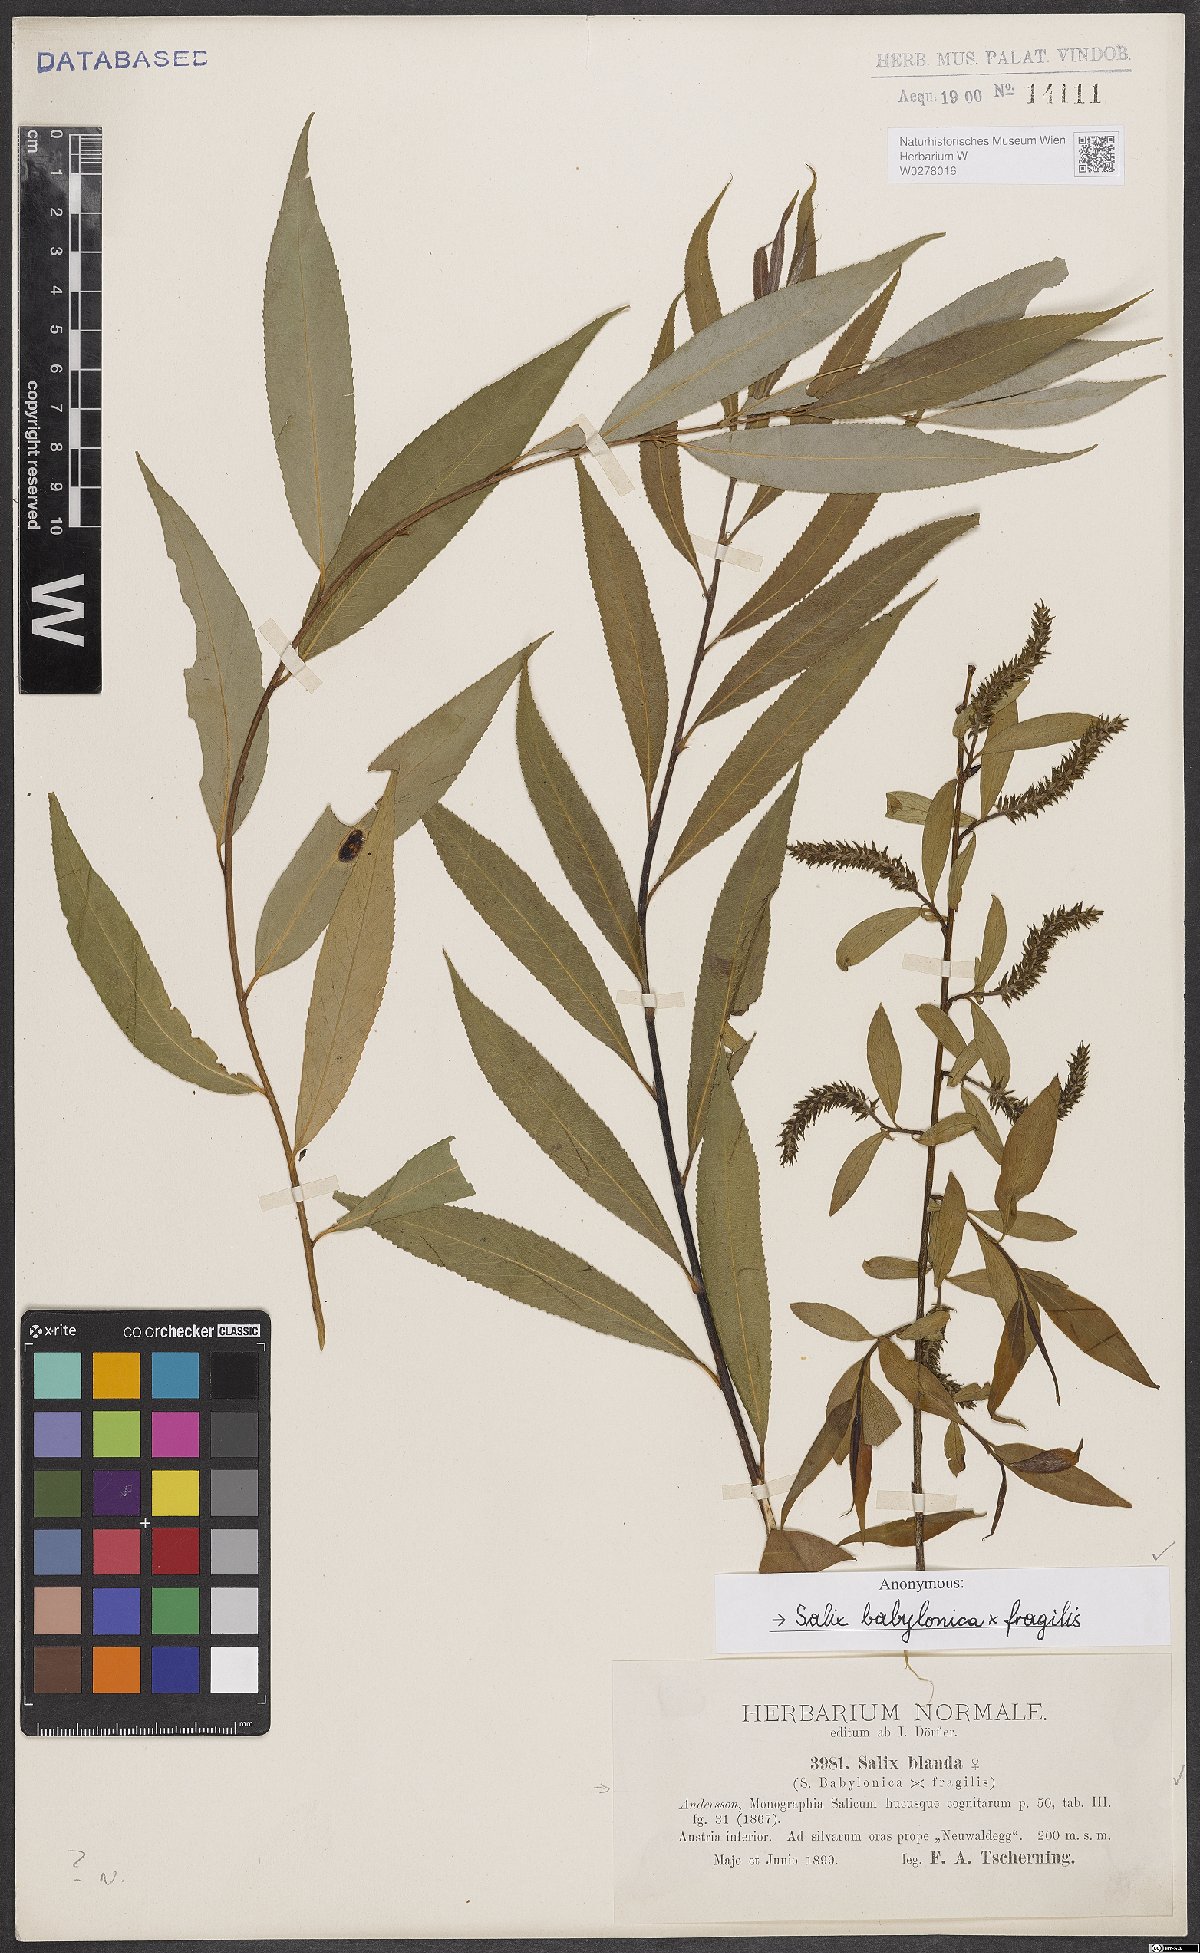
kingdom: Plantae
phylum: Tracheophyta
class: Magnoliopsida
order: Malpighiales
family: Salicaceae
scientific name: Salicaceae
